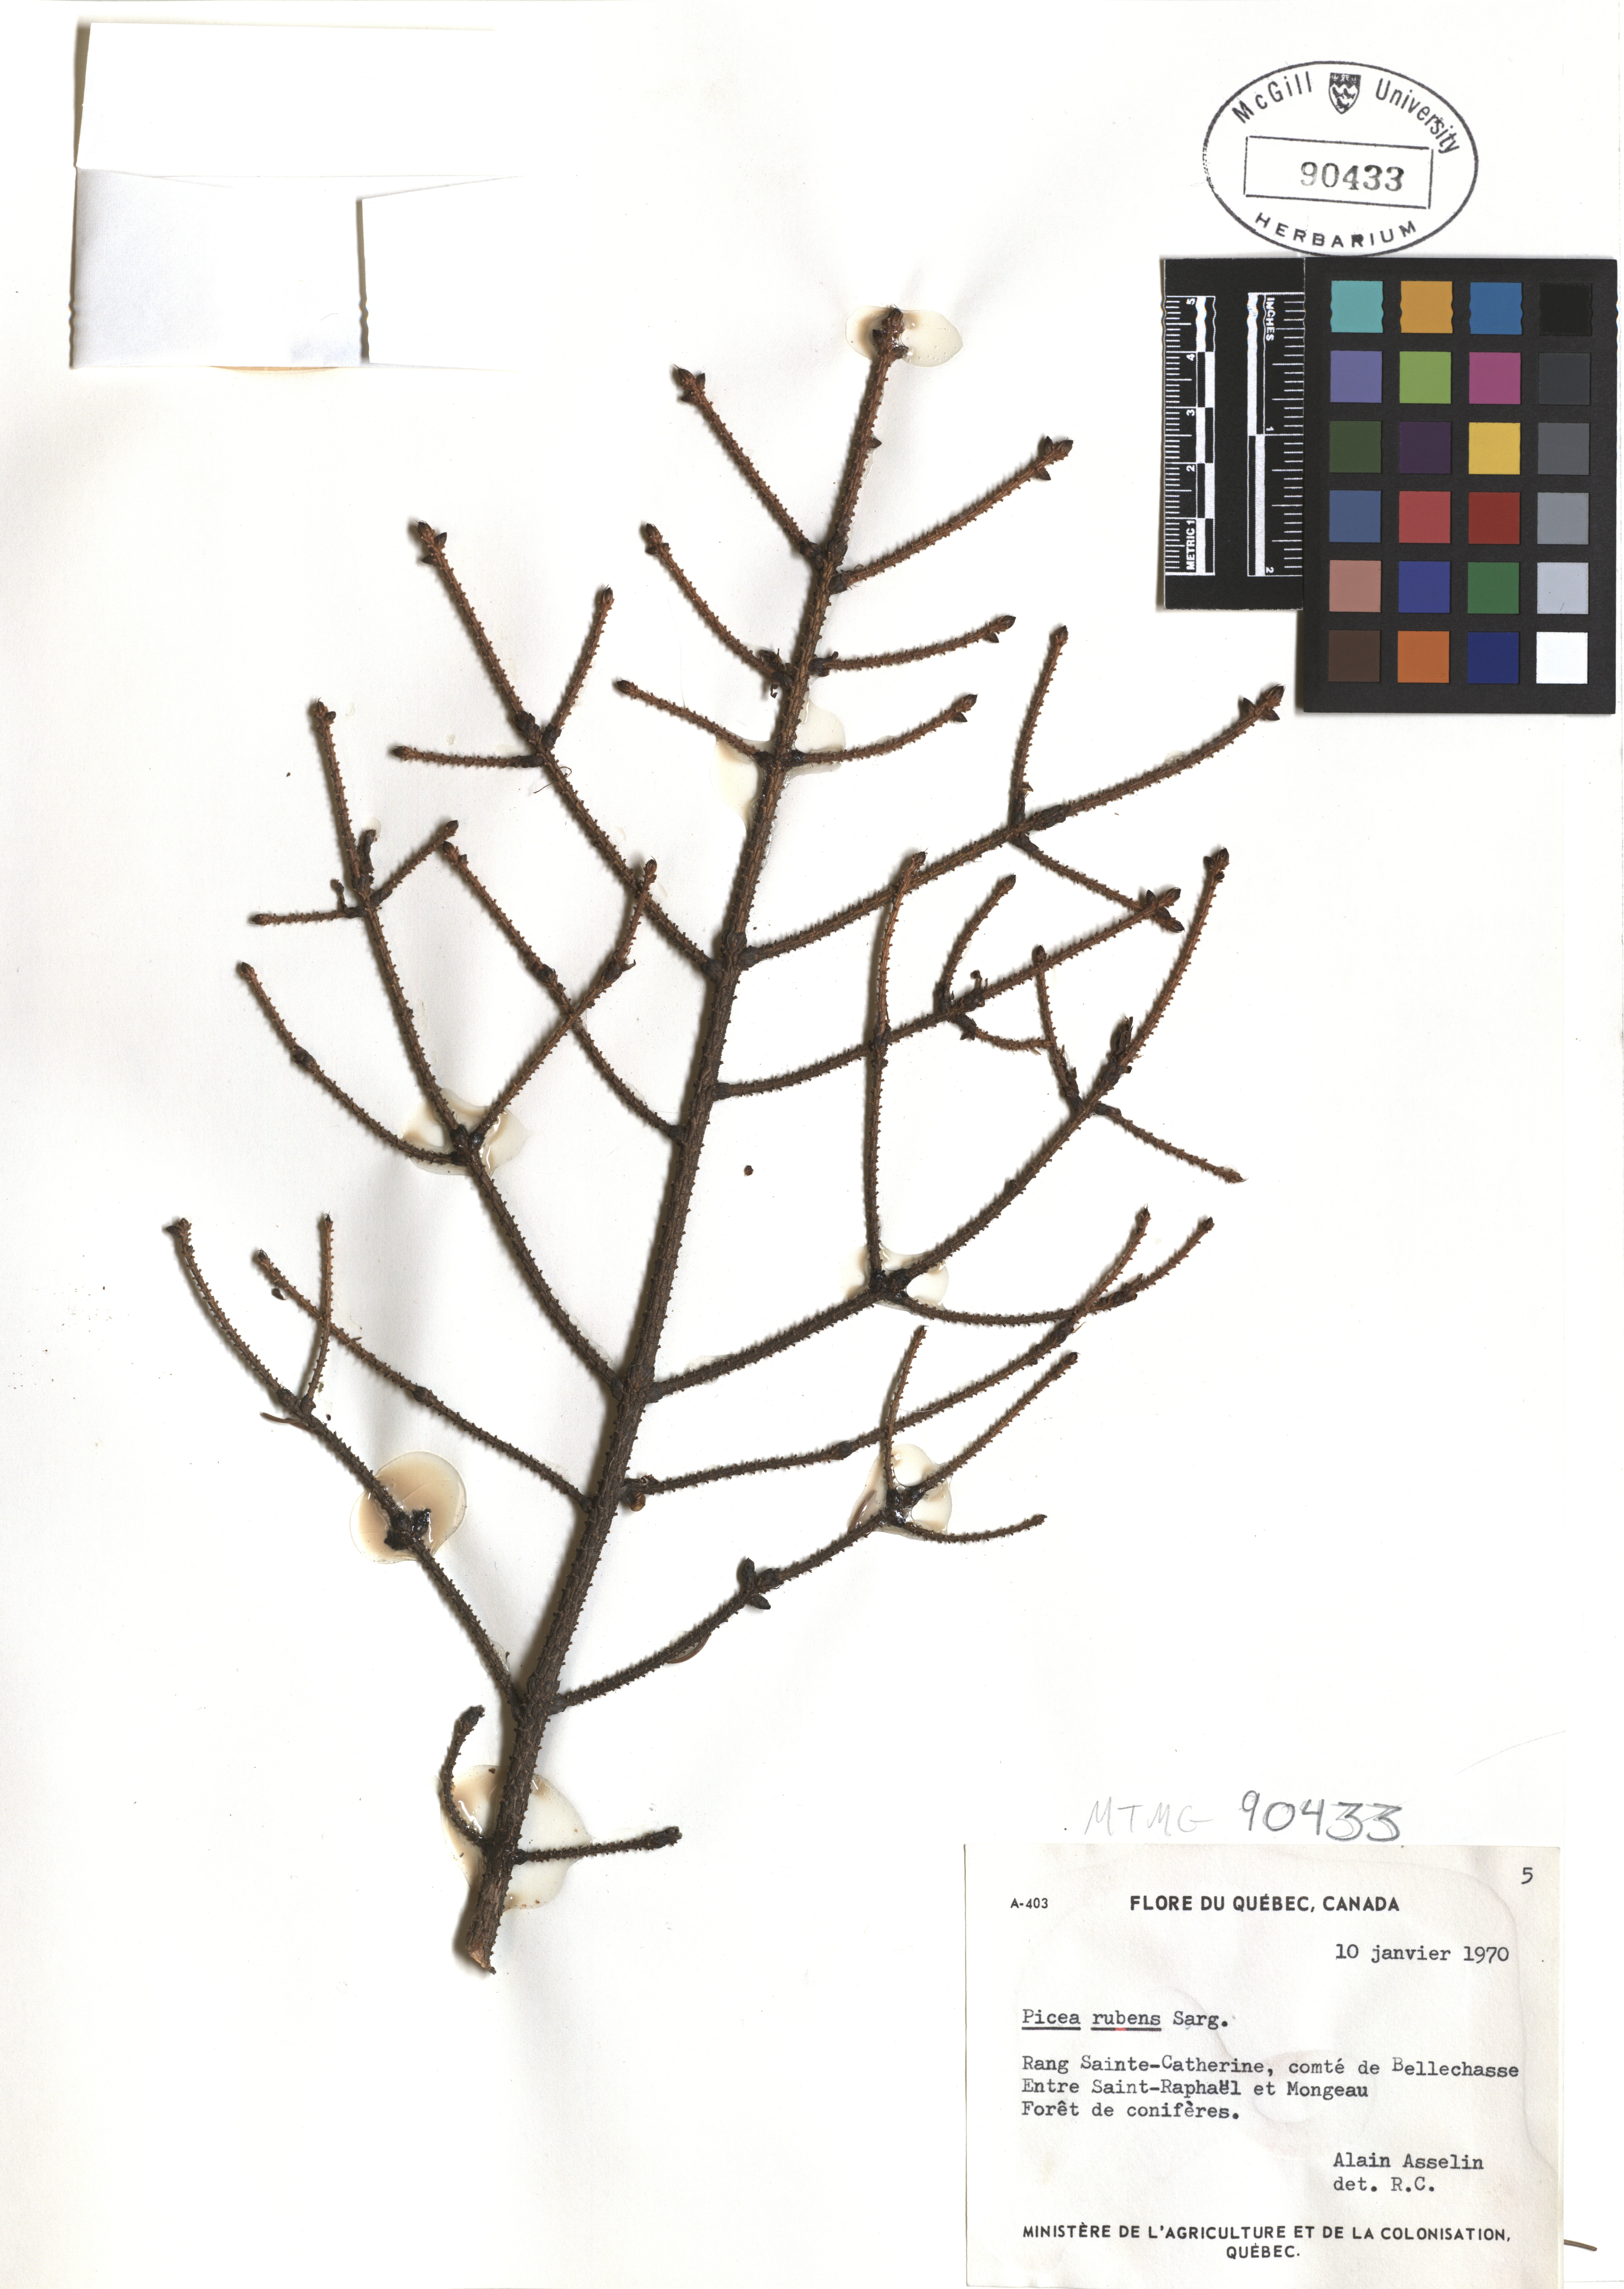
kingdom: Plantae
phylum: Tracheophyta
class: Pinopsida
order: Pinales
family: Pinaceae
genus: Picea
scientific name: Picea rubens
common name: Red spruce
